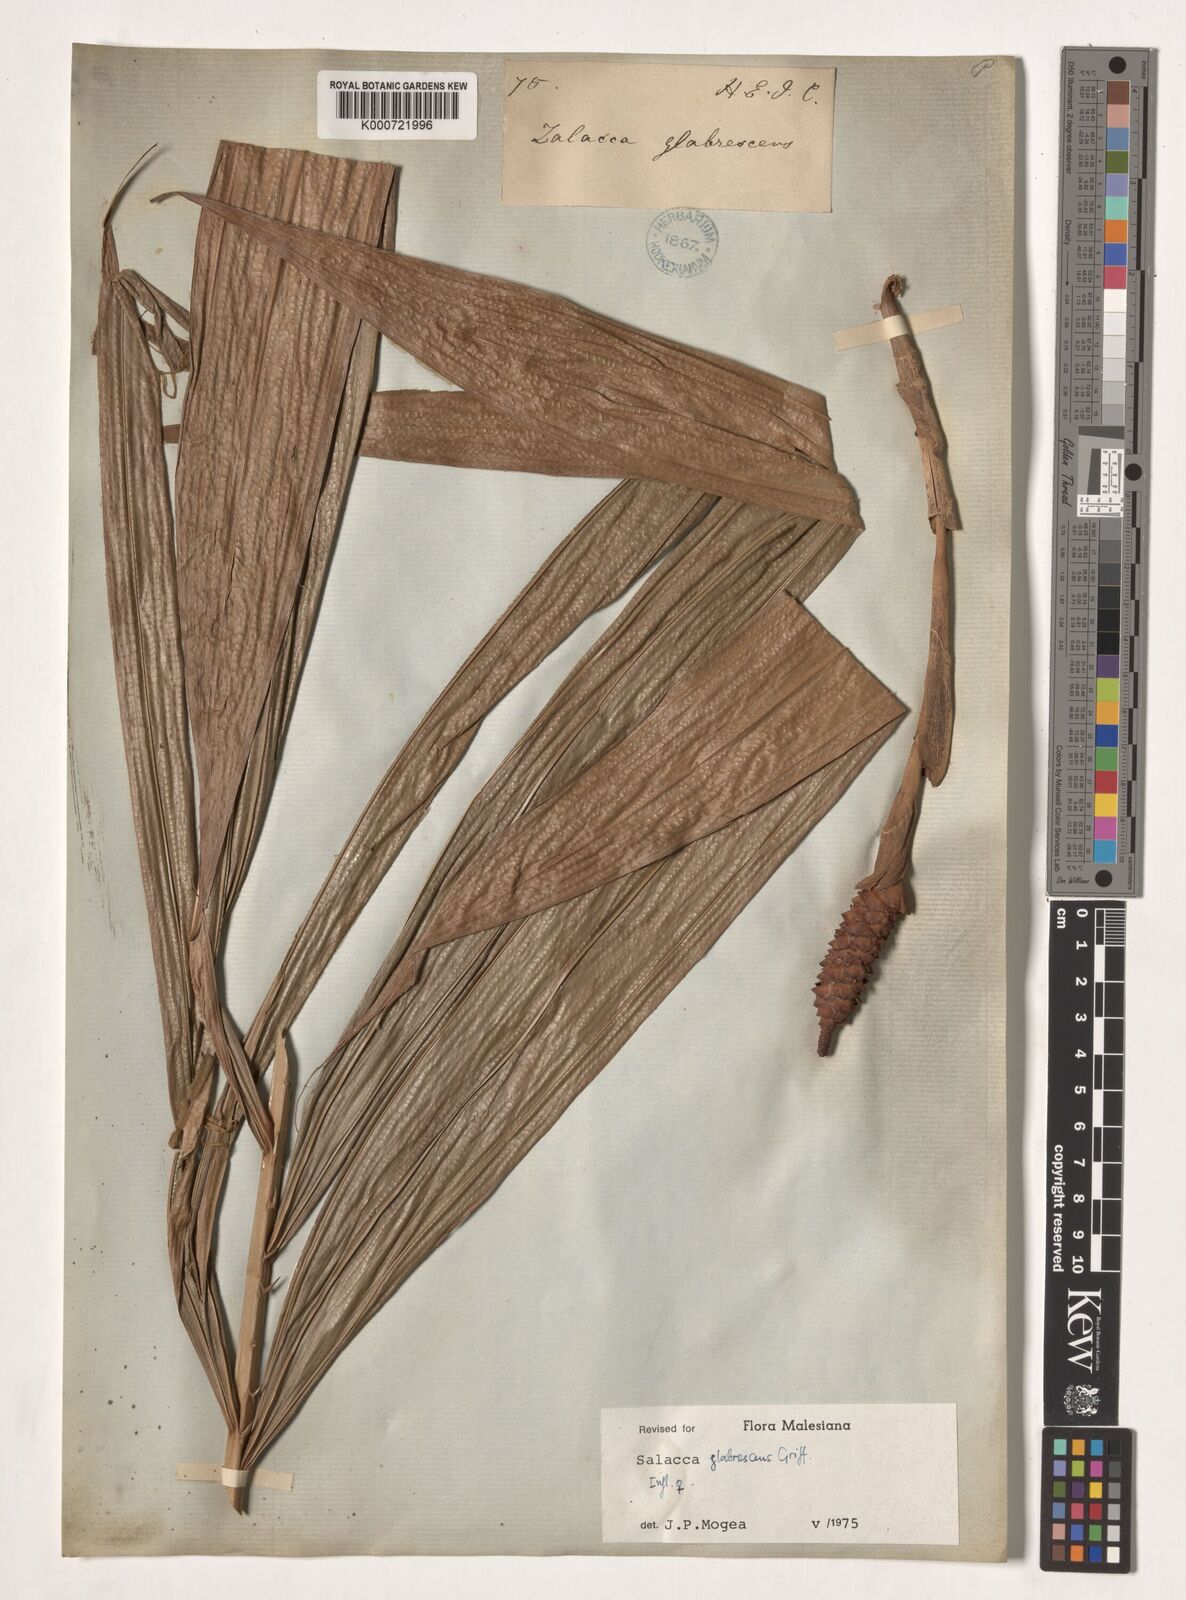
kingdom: Plantae
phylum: Tracheophyta
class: Liliopsida
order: Arecales
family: Arecaceae
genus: Salacca
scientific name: Salacca glabrescens
